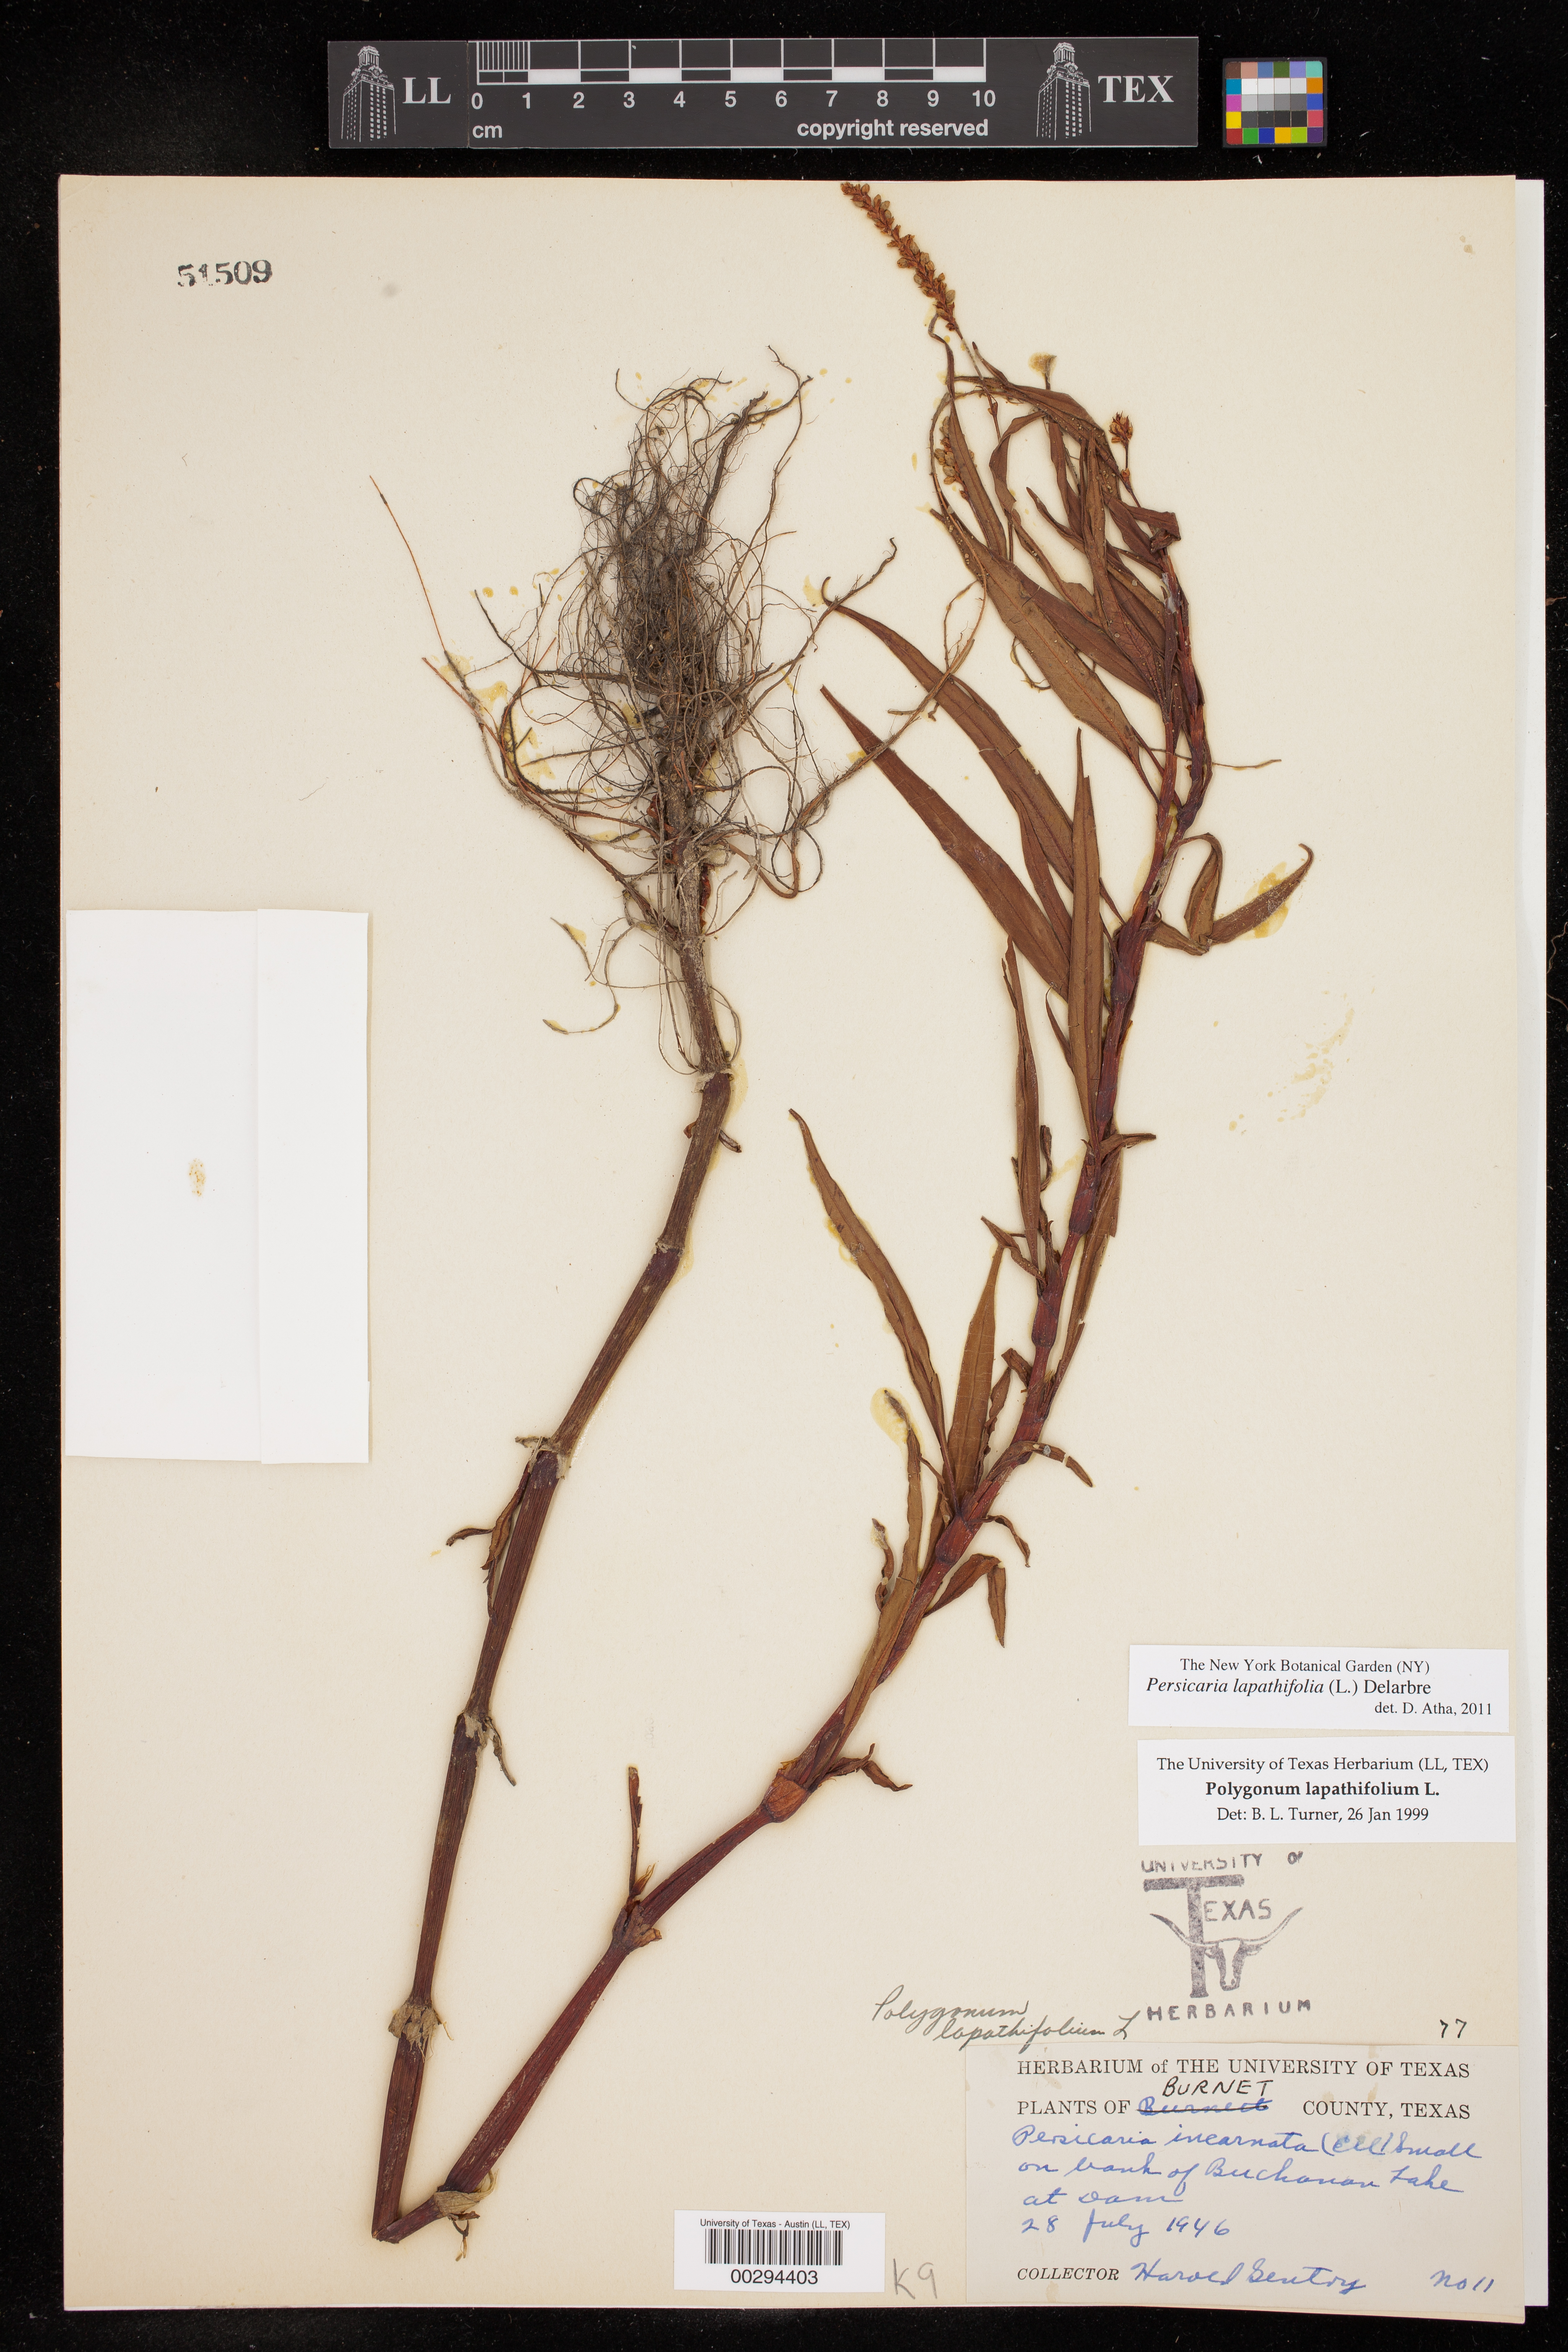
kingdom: Plantae
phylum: Tracheophyta
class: Magnoliopsida
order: Caryophyllales
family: Polygonaceae
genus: Persicaria
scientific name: Persicaria lapathifolia
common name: Curlytop knotweed
